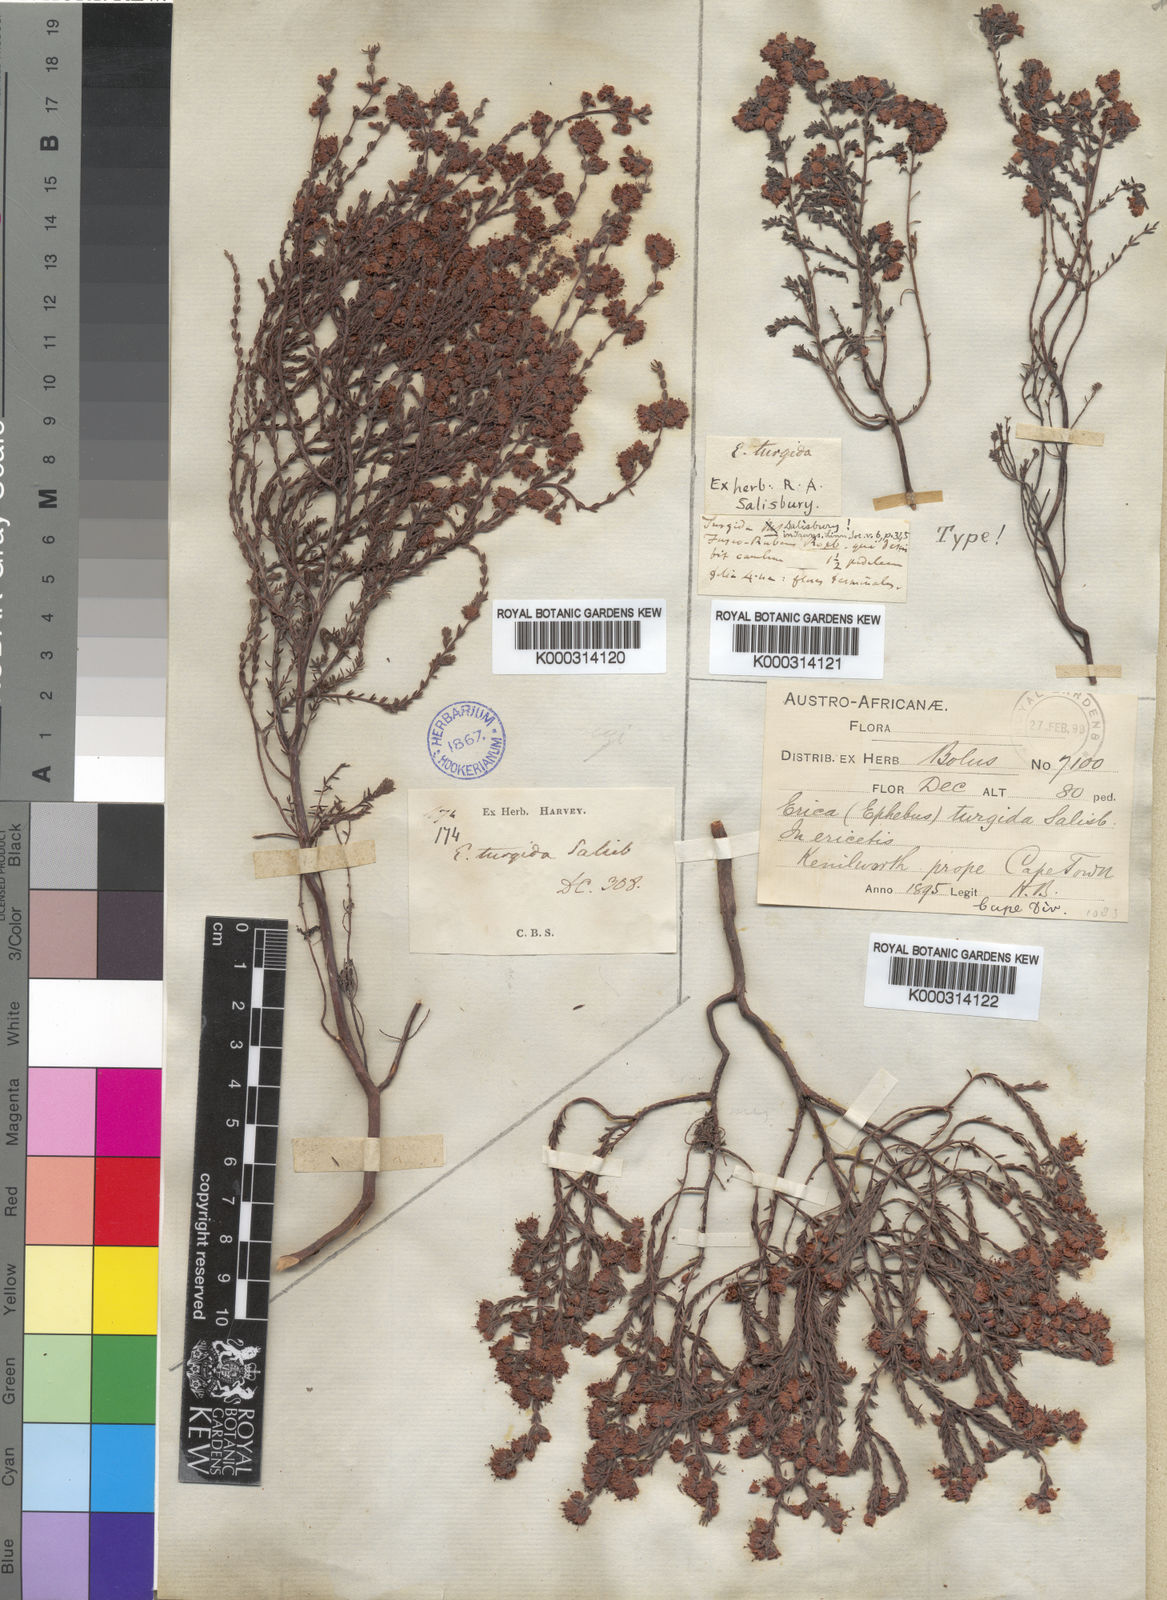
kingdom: Plantae
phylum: Tracheophyta
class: Magnoliopsida
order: Ericales
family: Ericaceae
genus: Erica
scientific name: Erica turgida
